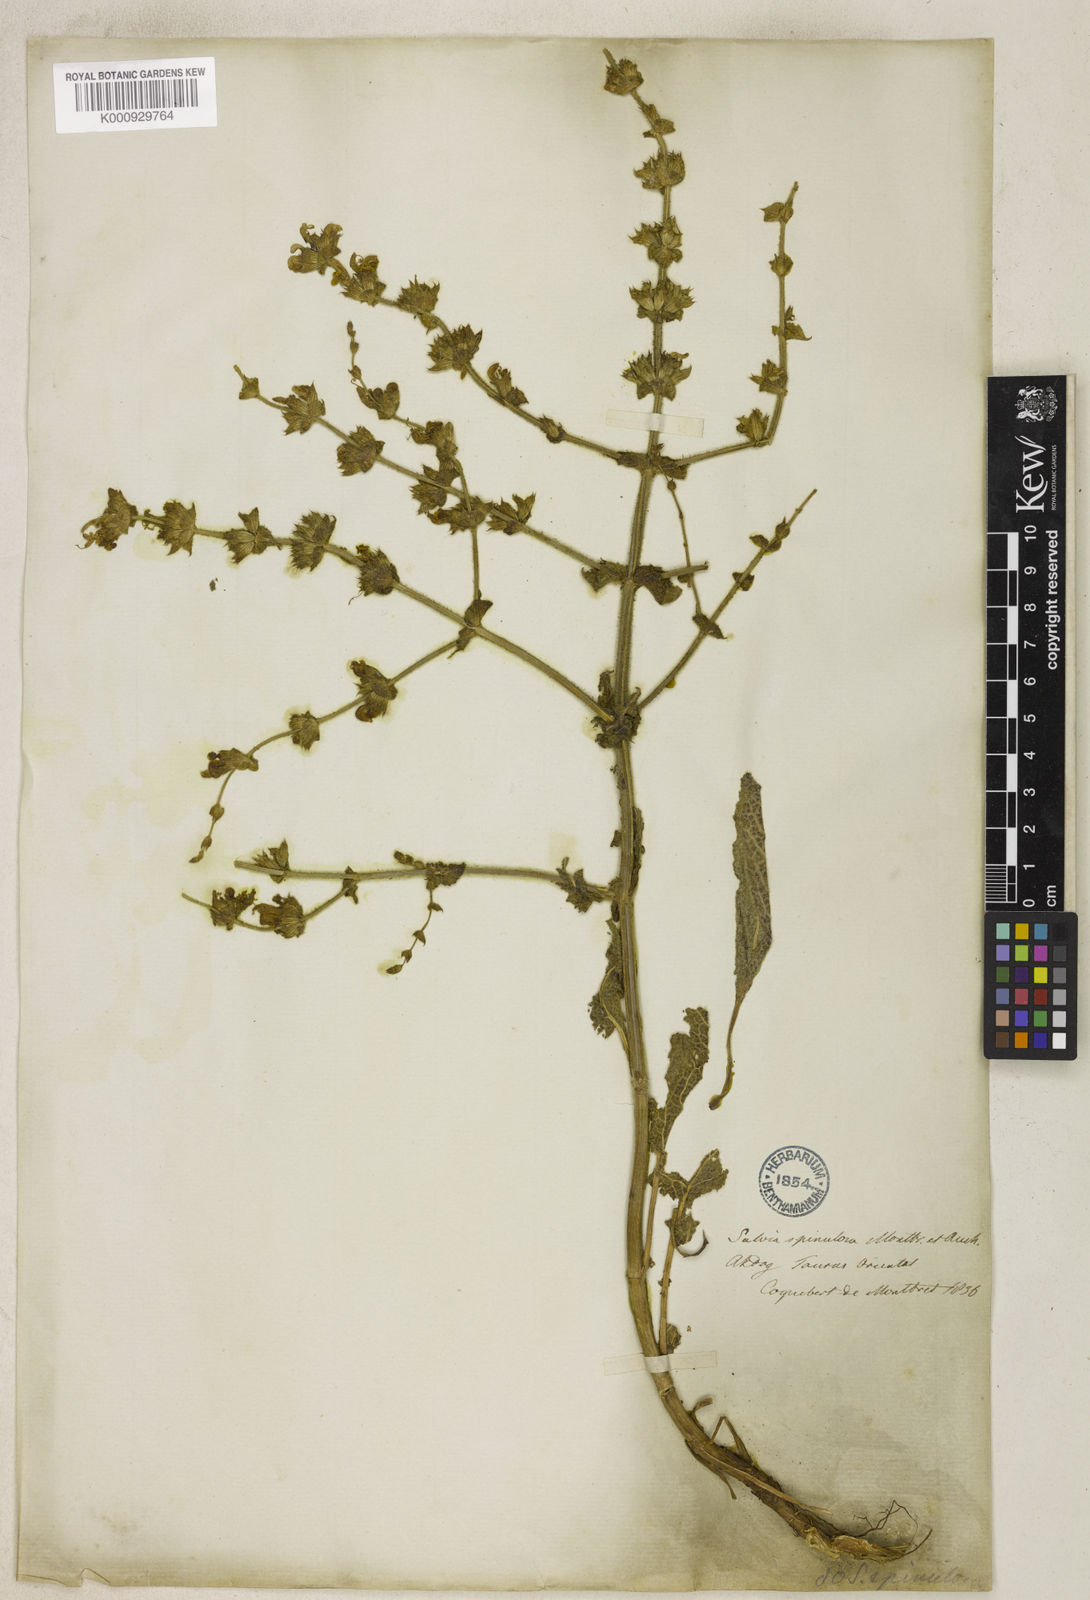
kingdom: Plantae
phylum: Tracheophyta
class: Magnoliopsida
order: Lamiales
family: Lamiaceae
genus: Salvia
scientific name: Salvia frigida
